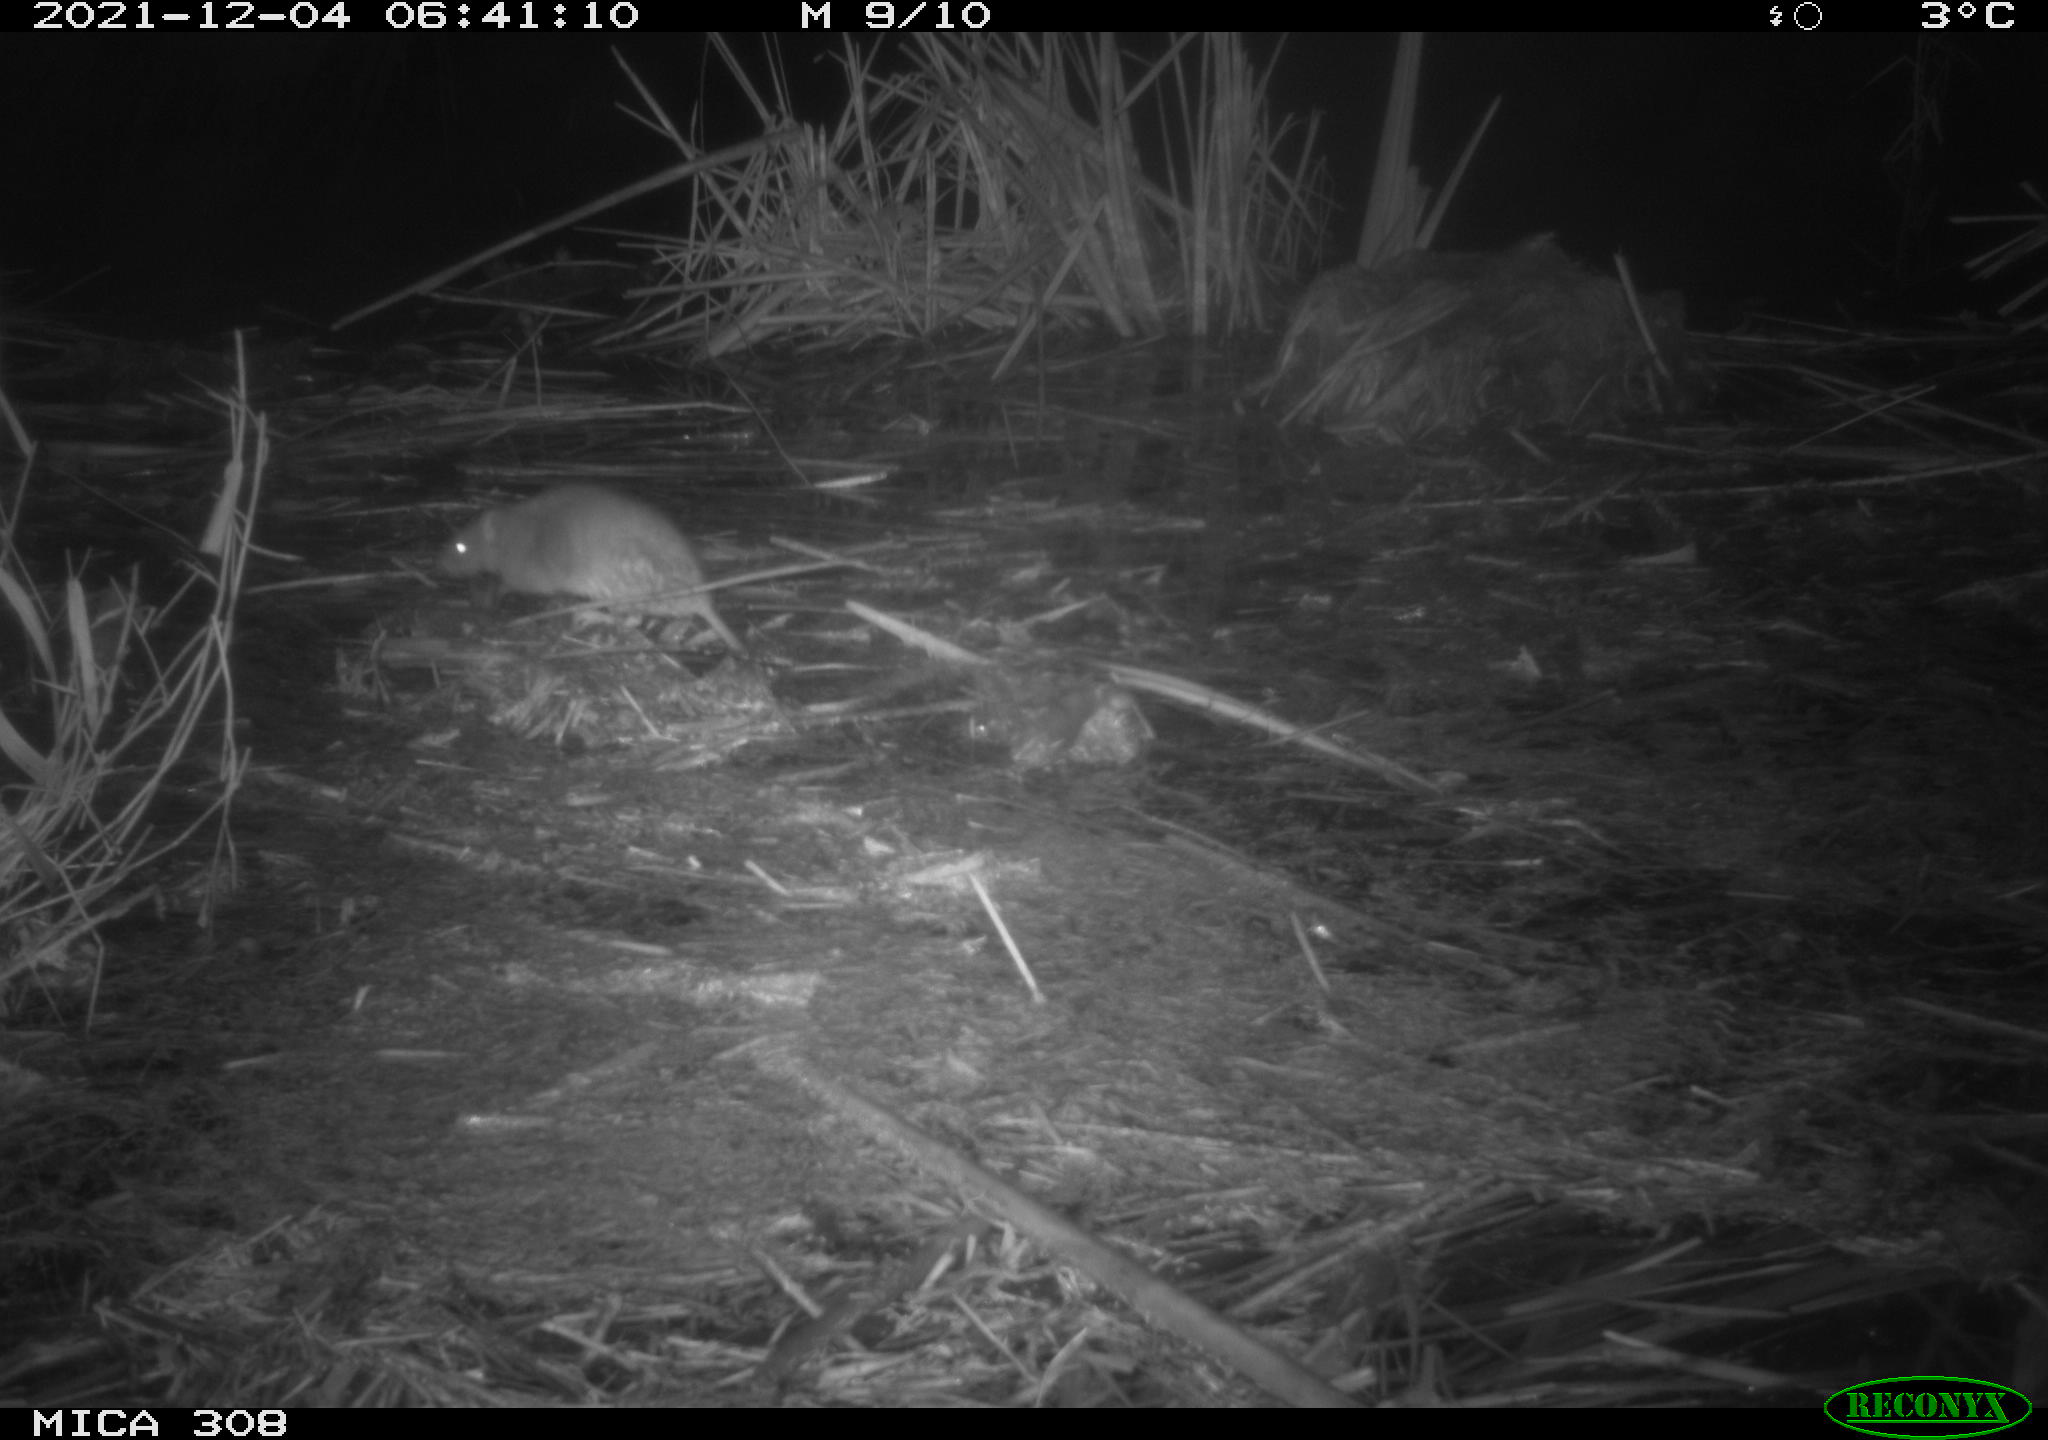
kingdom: Animalia
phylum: Chordata
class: Mammalia
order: Rodentia
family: Muridae
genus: Rattus
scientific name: Rattus norvegicus
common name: Brown rat
